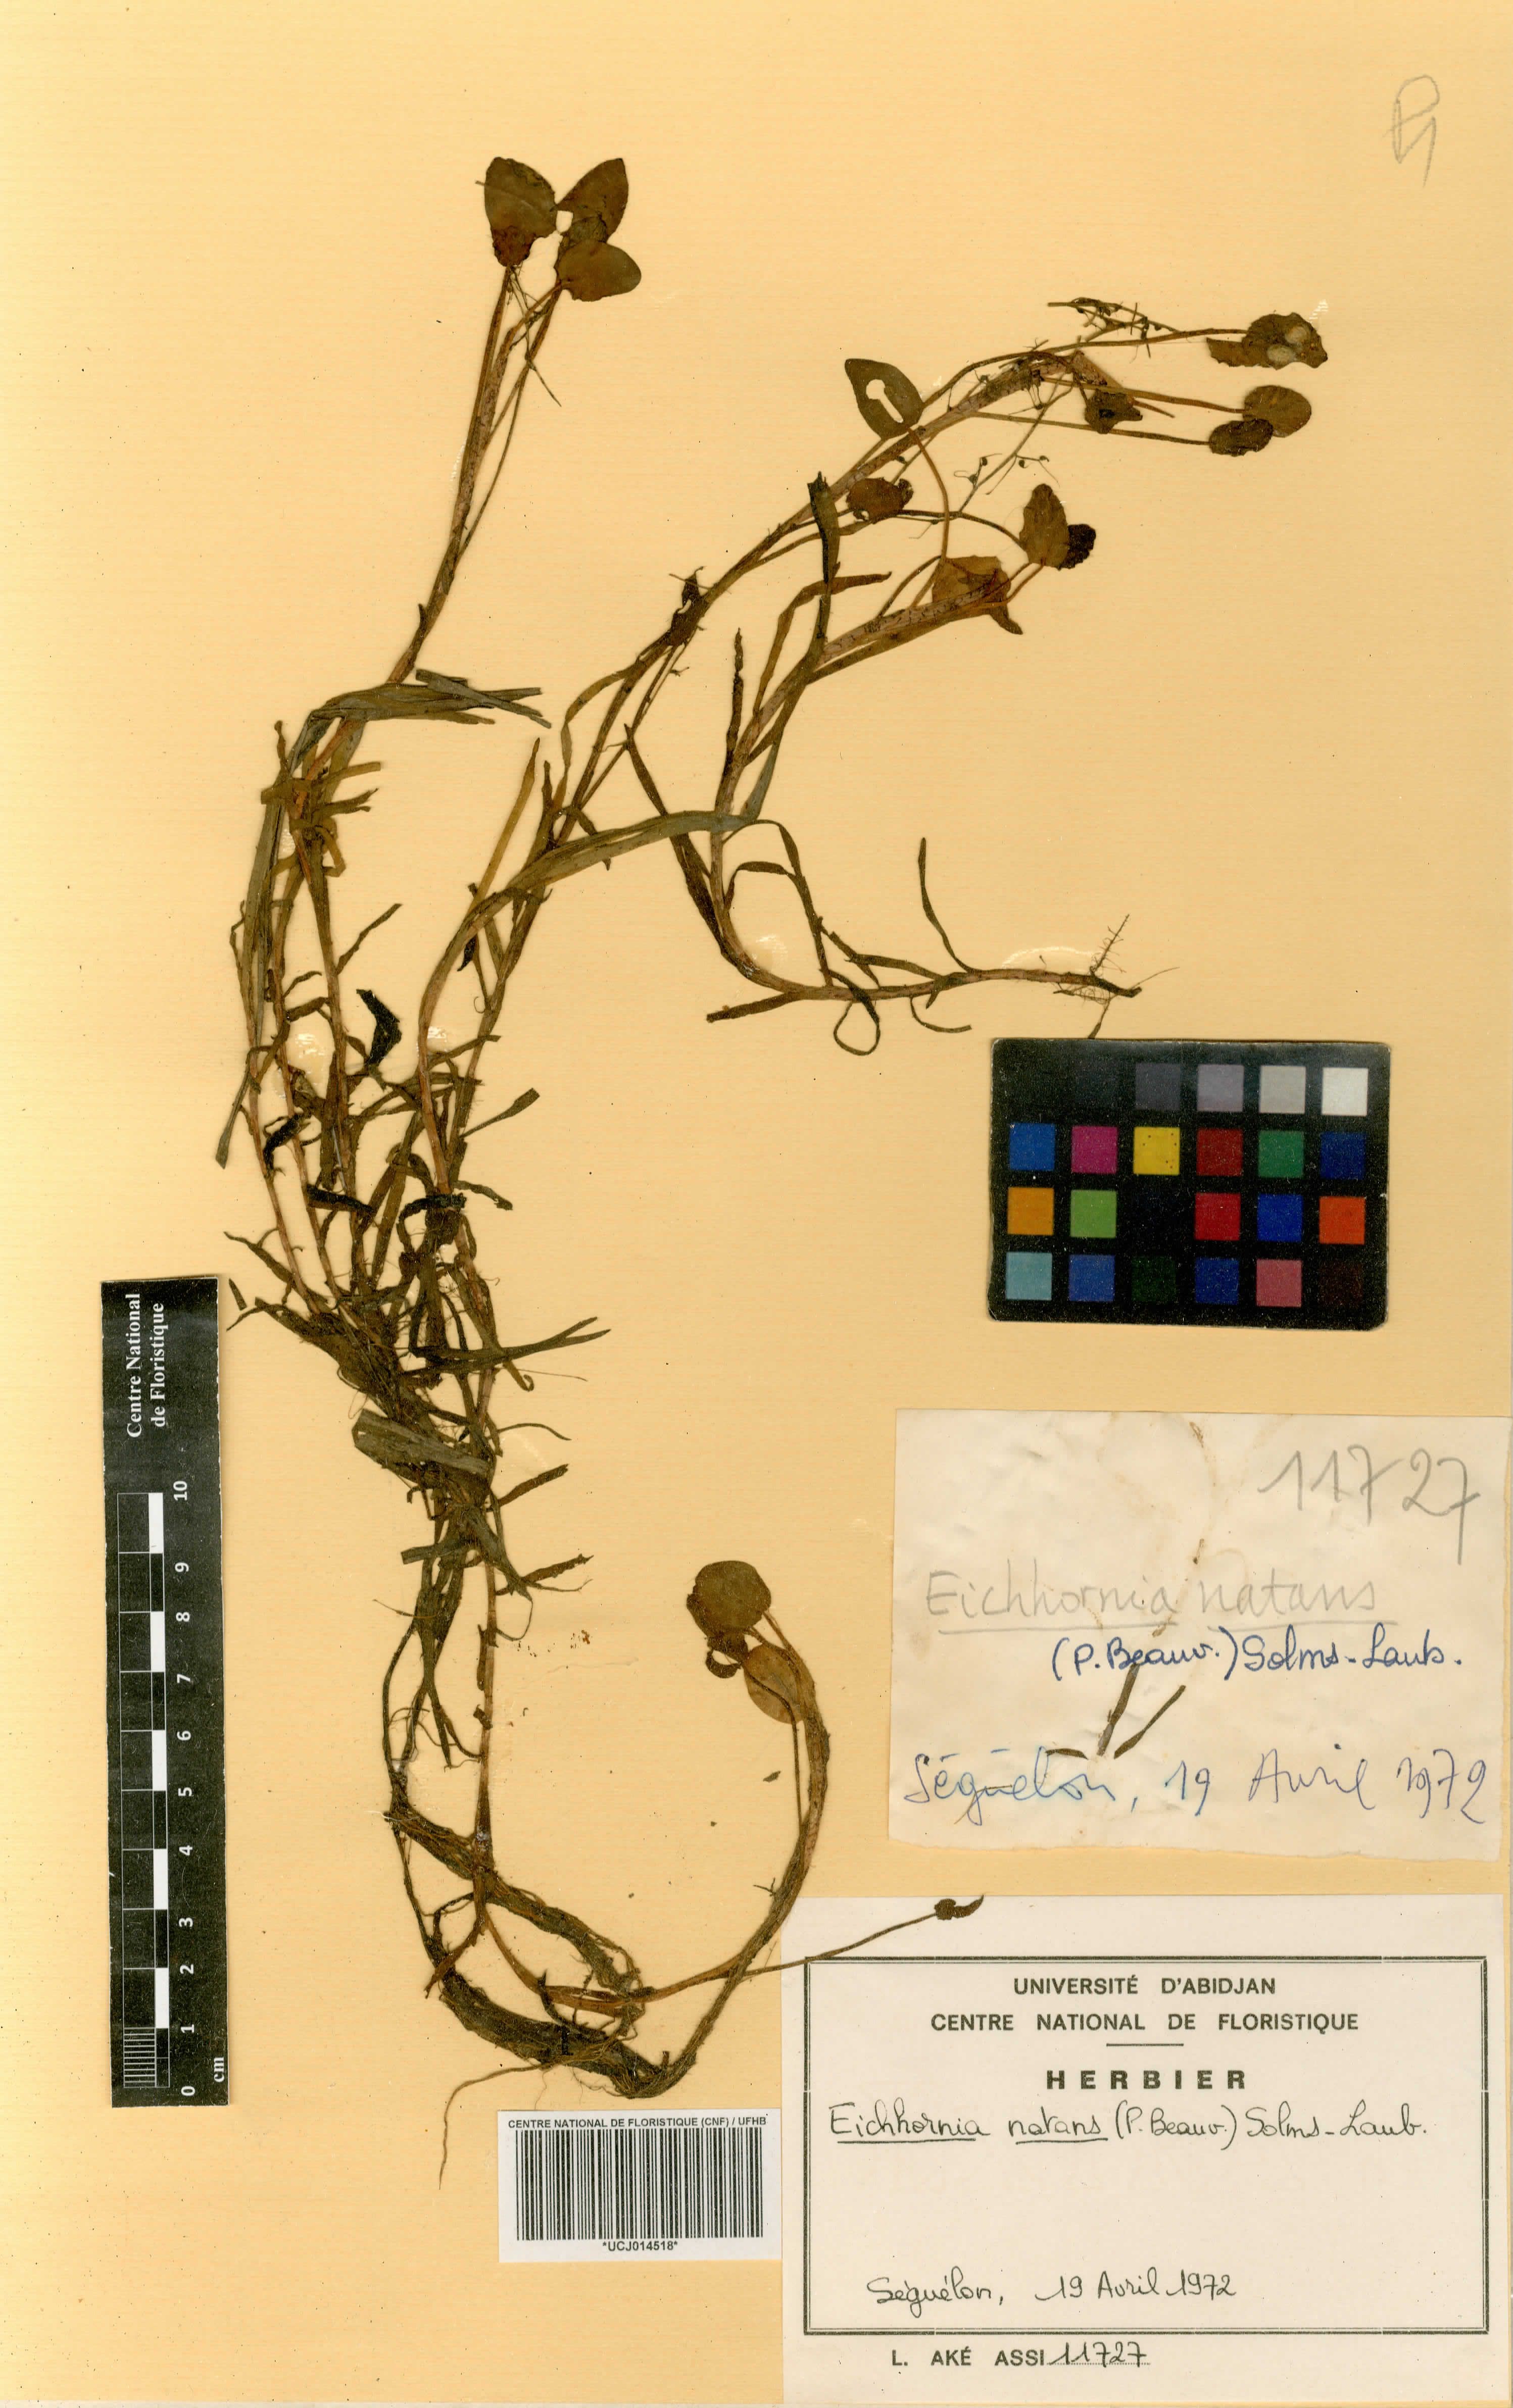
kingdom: Plantae
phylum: Tracheophyta
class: Liliopsida
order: Commelinales
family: Pontederiaceae
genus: Pontederia
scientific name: Pontederia natans
